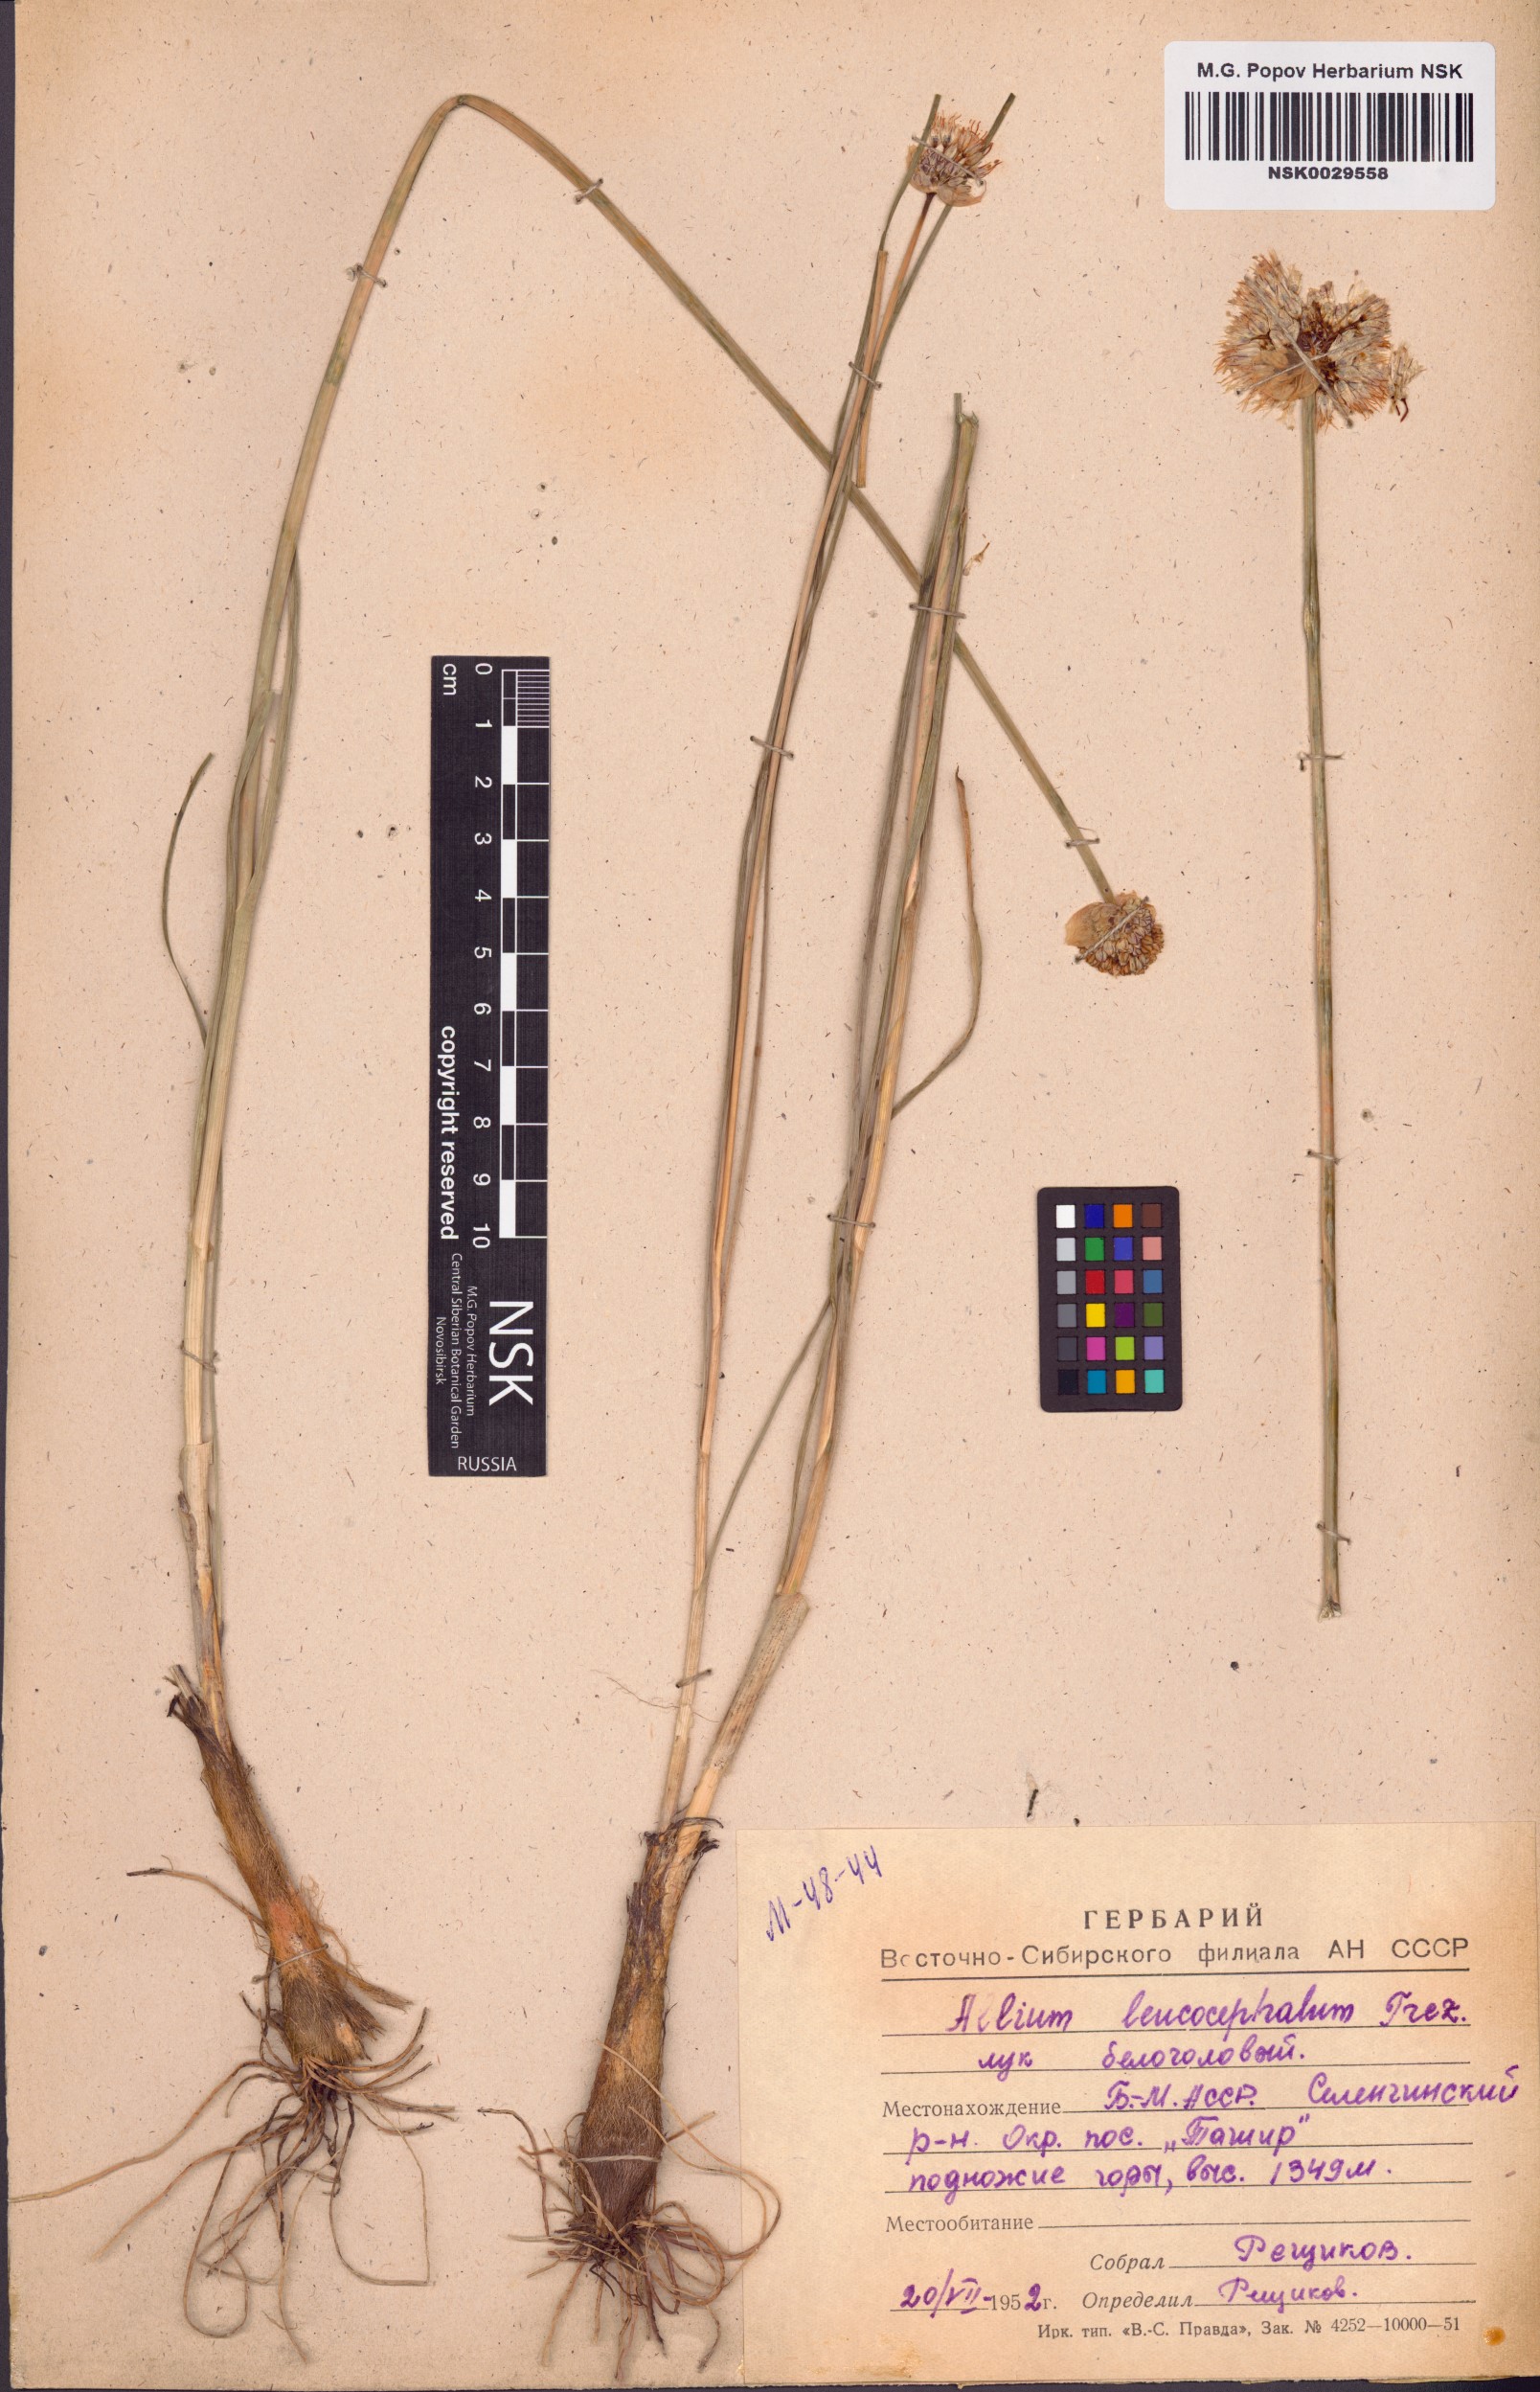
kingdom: Plantae
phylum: Tracheophyta
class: Liliopsida
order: Asparagales
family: Amaryllidaceae
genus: Allium
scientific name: Allium leucocephalum
